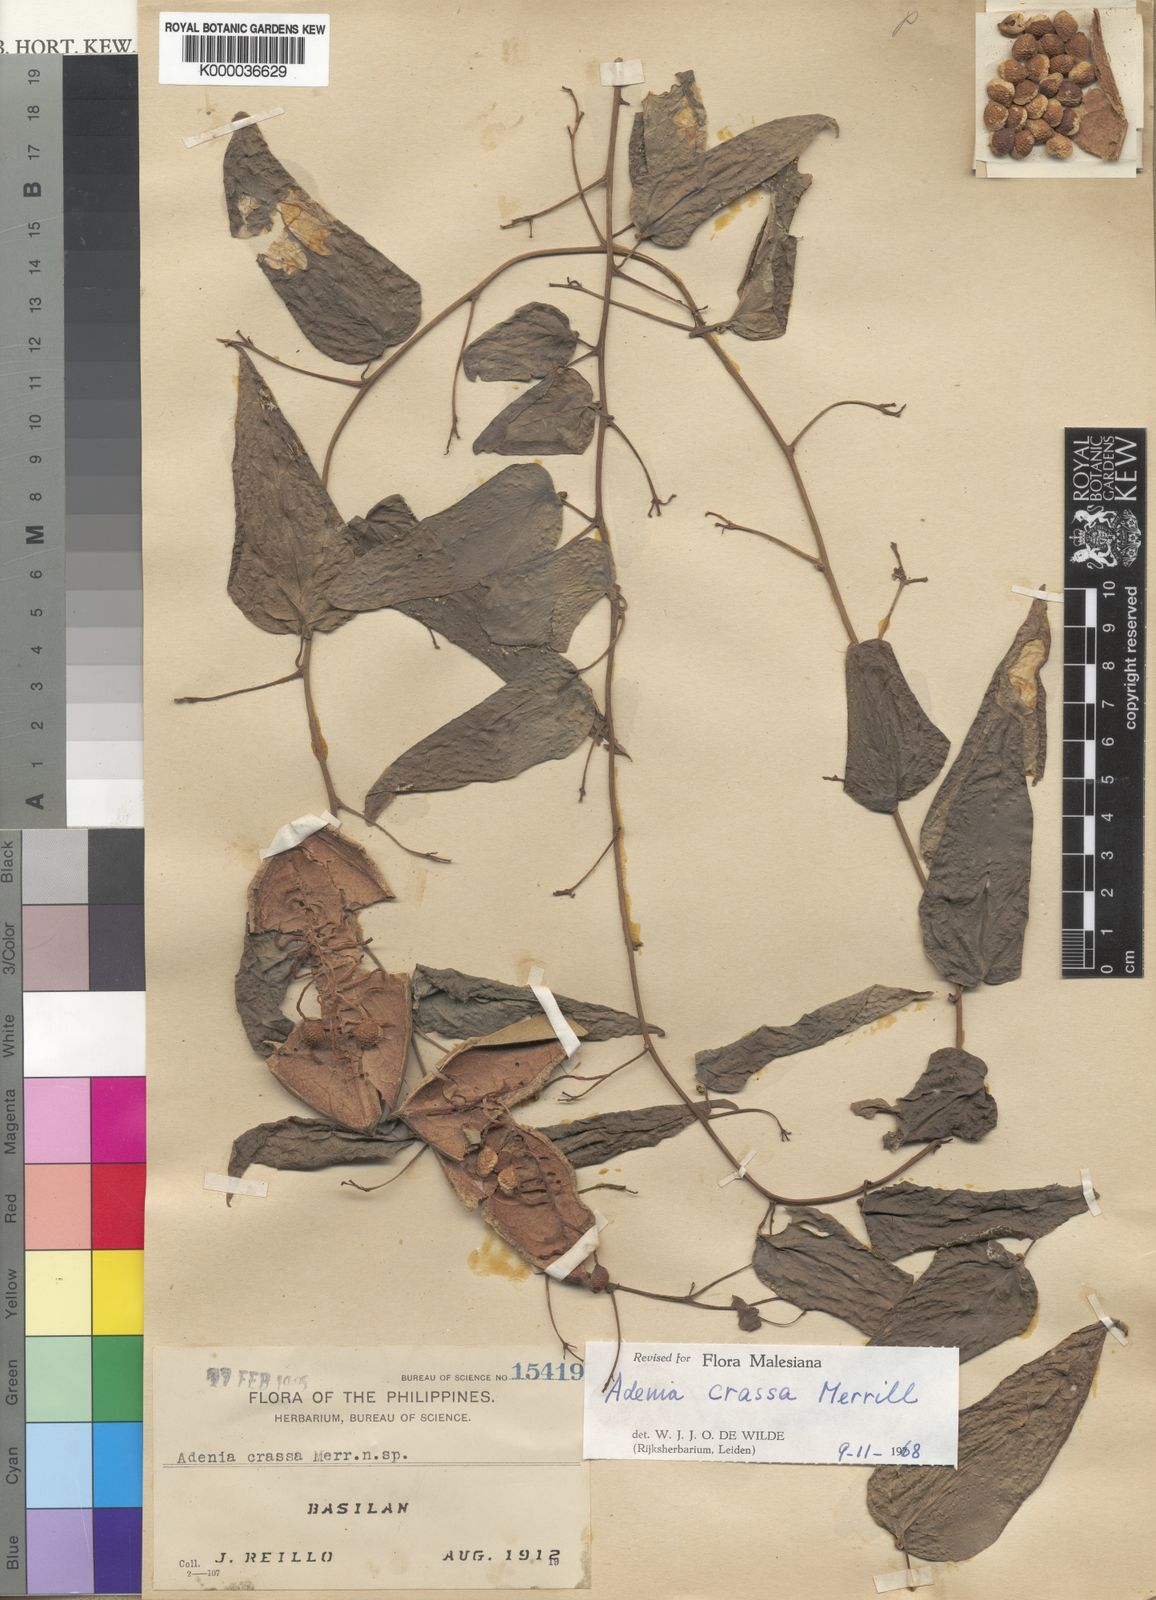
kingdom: Plantae
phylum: Tracheophyta
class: Magnoliopsida
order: Malpighiales
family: Passifloraceae
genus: Adenia
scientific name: Adenia crassa
